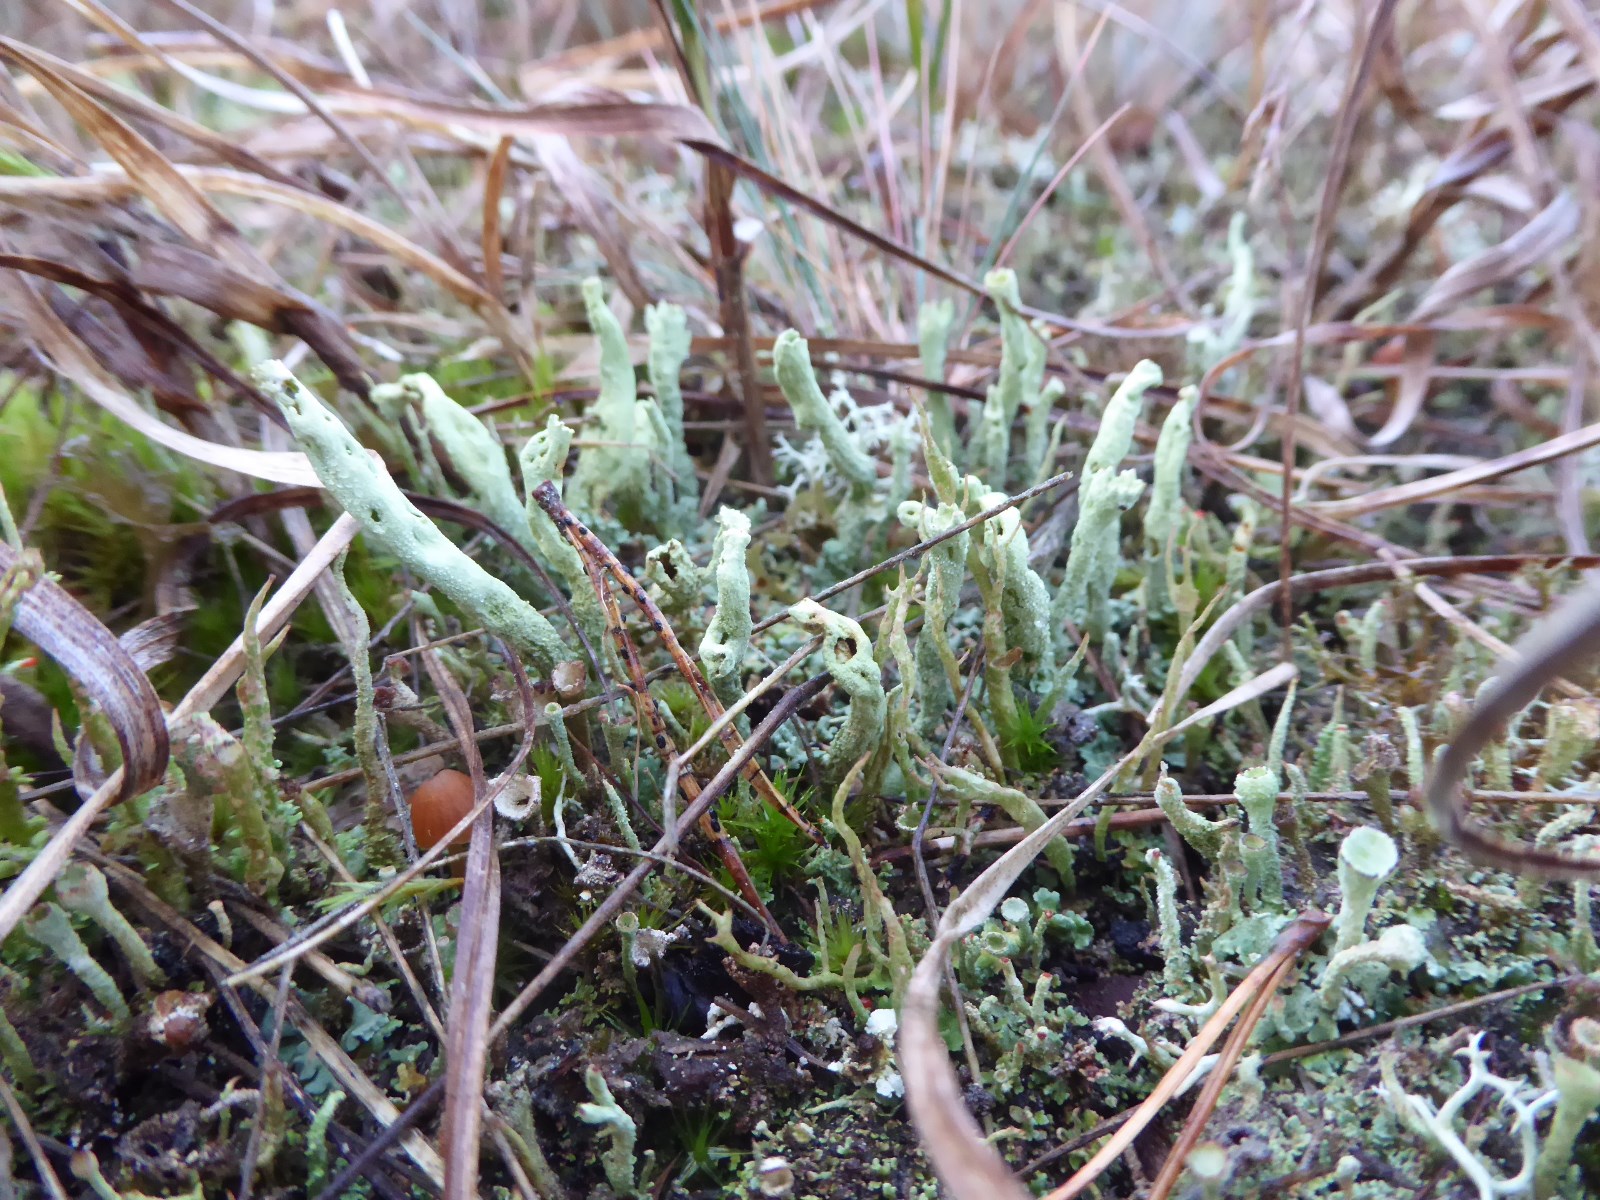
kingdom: Fungi
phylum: Ascomycota
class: Lecanoromycetes
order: Lecanorales
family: Cladoniaceae
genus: Cladonia
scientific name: Cladonia sulphurina
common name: opblæst bægerlav
